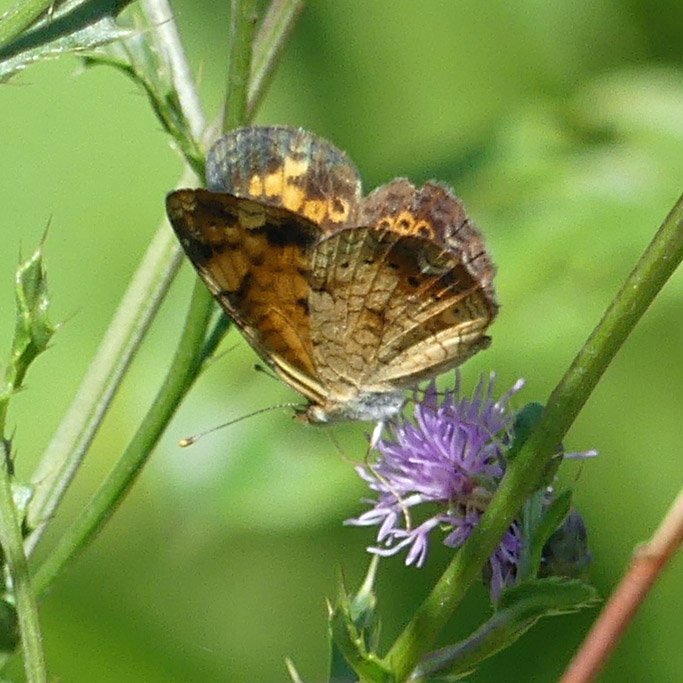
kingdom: Animalia
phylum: Arthropoda
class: Insecta
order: Lepidoptera
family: Nymphalidae
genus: Phyciodes
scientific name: Phyciodes tharos
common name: Northern Crescent
